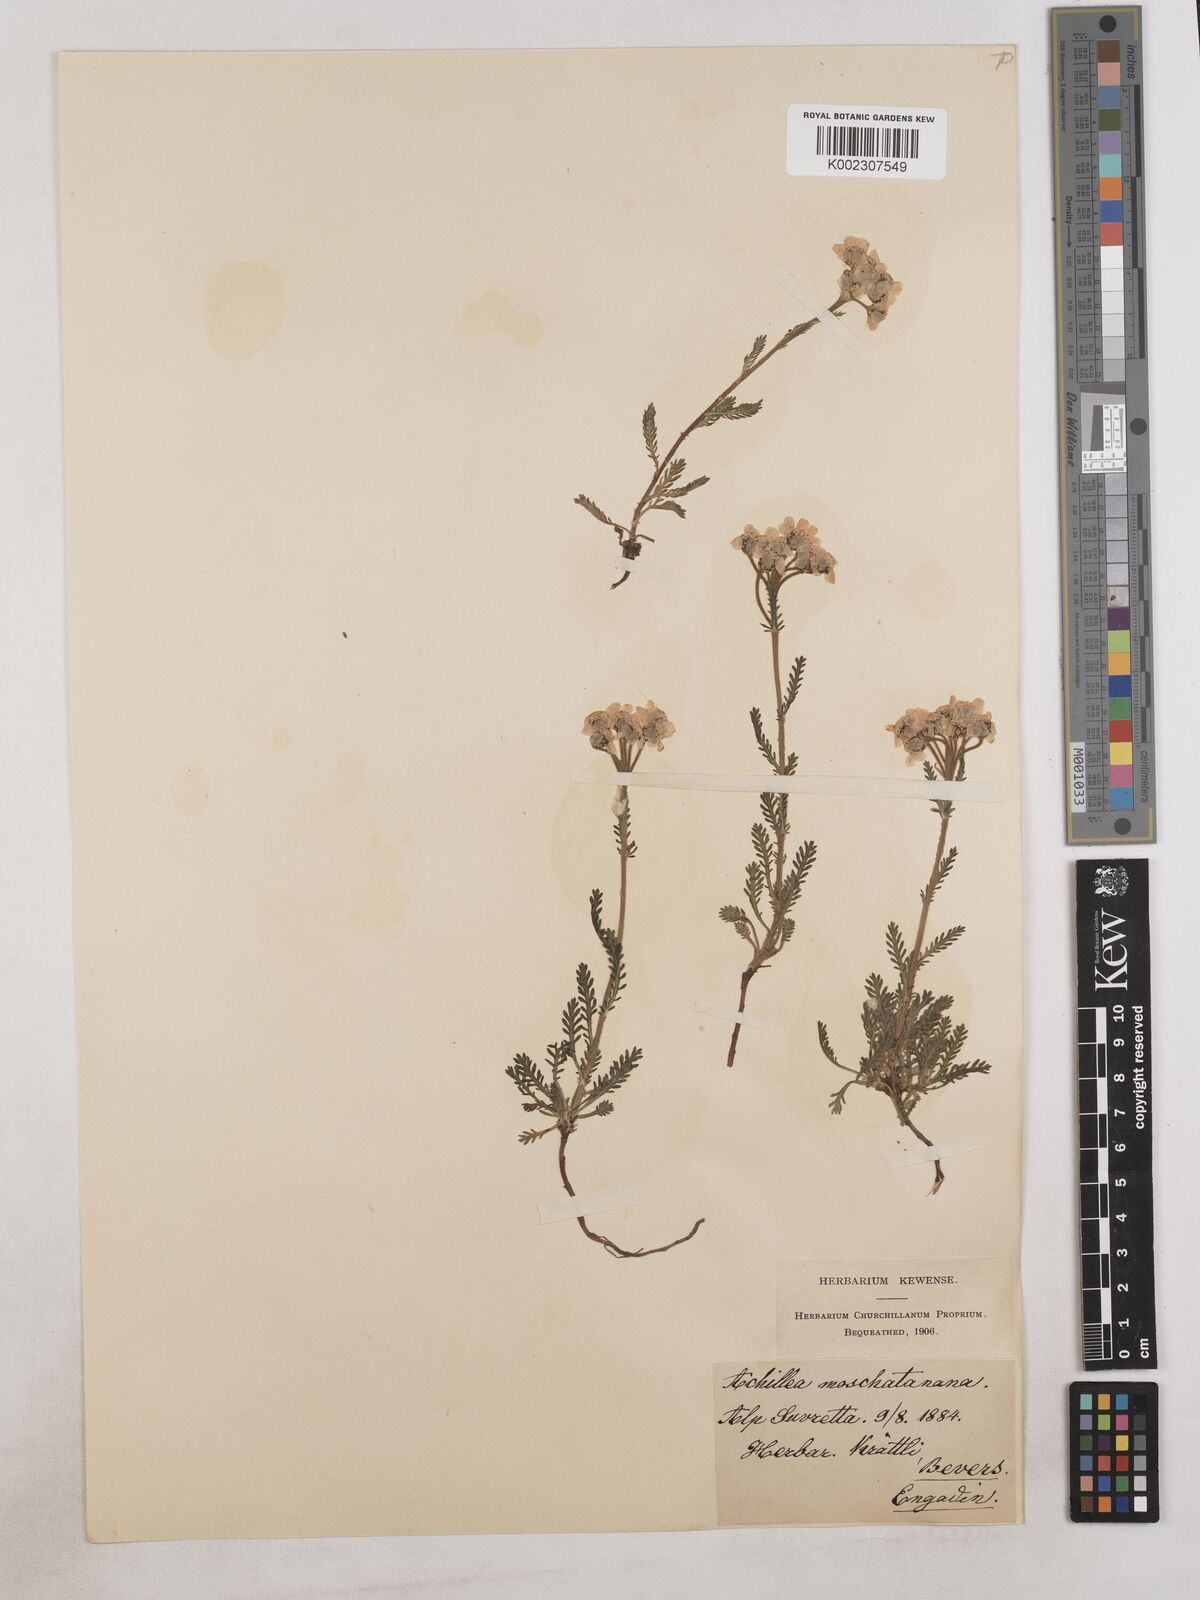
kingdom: Plantae
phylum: Tracheophyta
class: Magnoliopsida
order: Asterales
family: Asteraceae
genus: Achillea
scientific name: Achillea erba-rotta
